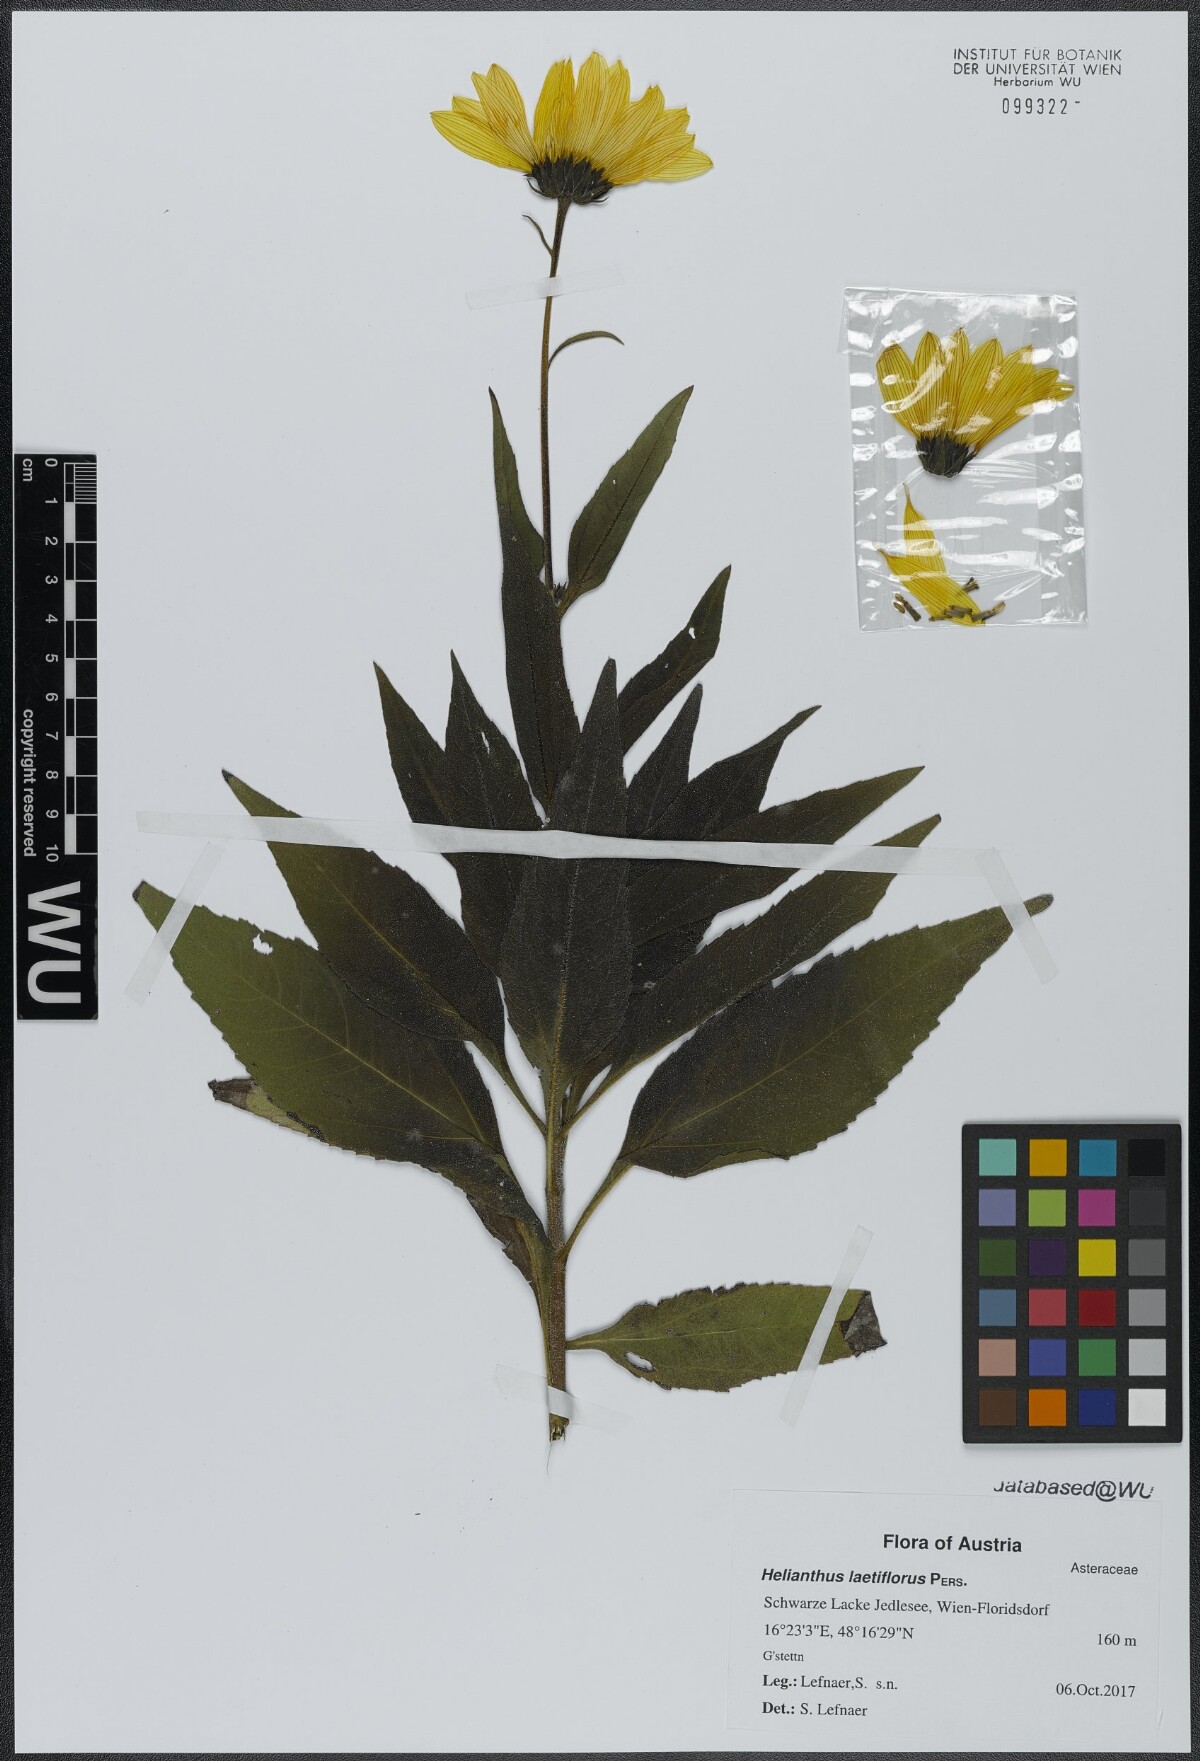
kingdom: Plantae
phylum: Tracheophyta
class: Magnoliopsida
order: Asterales
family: Asteraceae
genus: Helianthus
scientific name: Helianthus laetiflorus
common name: Perennial sunflower
